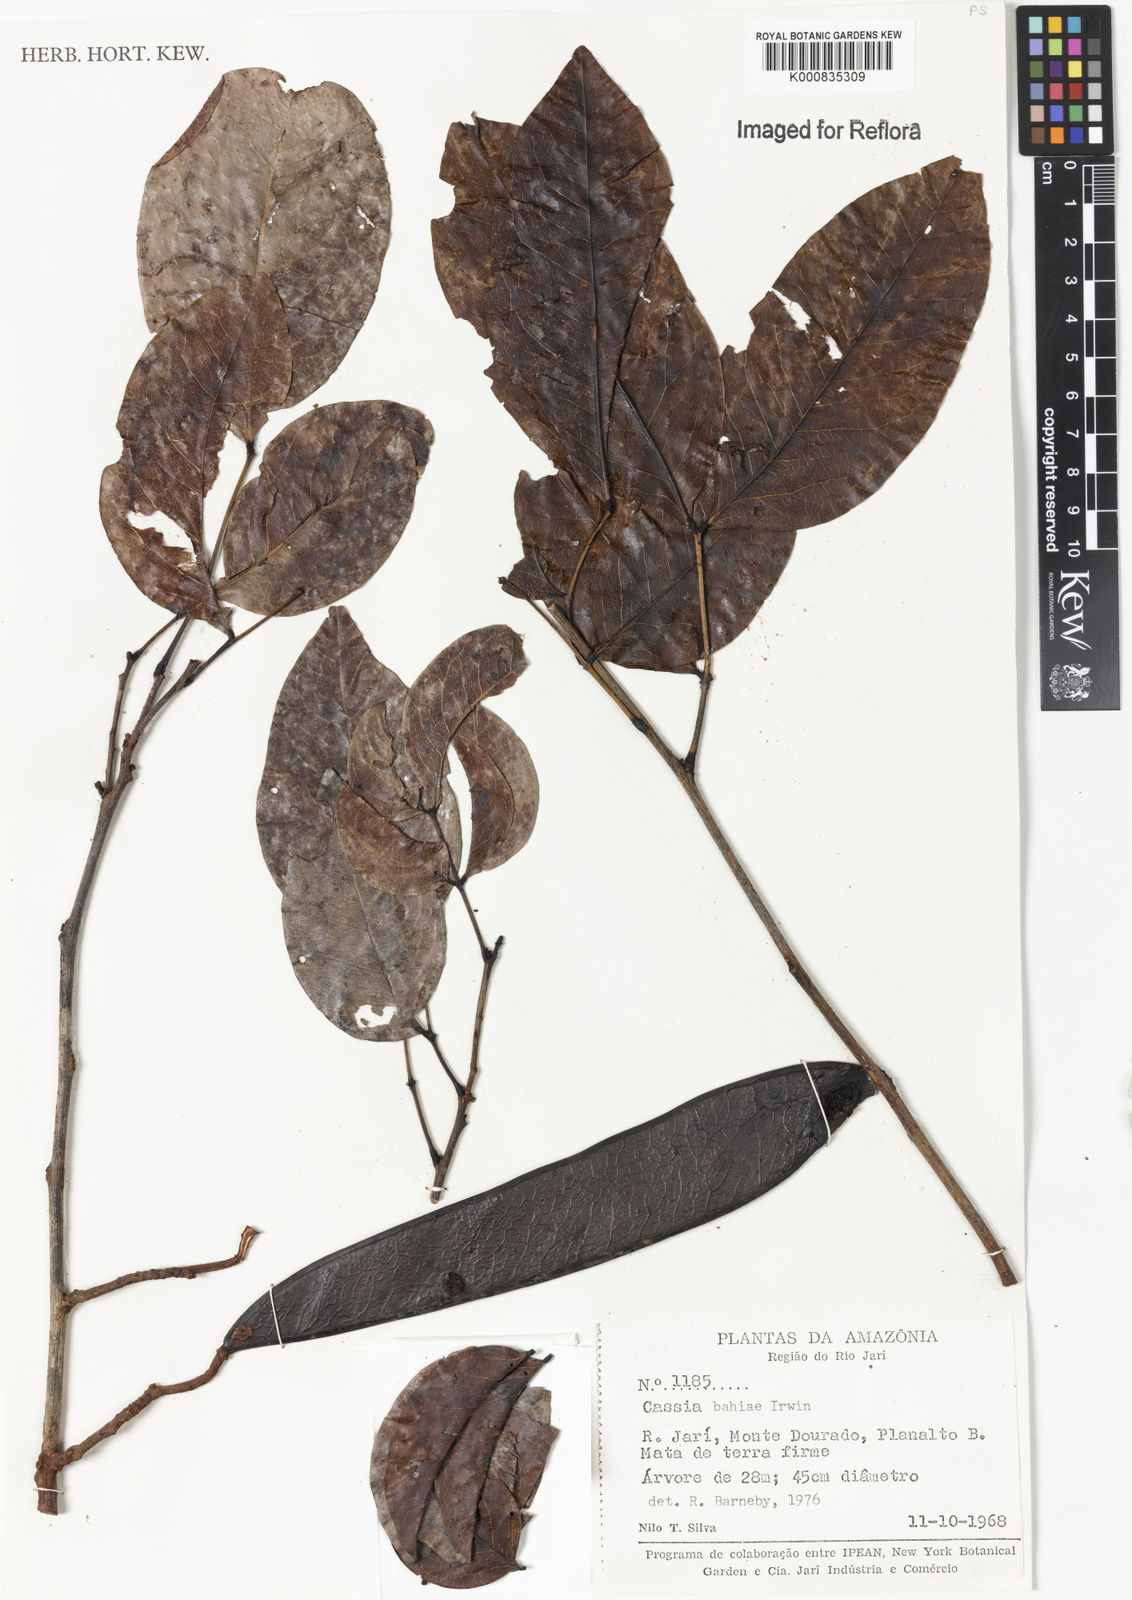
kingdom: Plantae
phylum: Tracheophyta
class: Magnoliopsida
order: Fabales
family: Fabaceae
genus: Chamaecrista
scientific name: Chamaecrista bahiae
